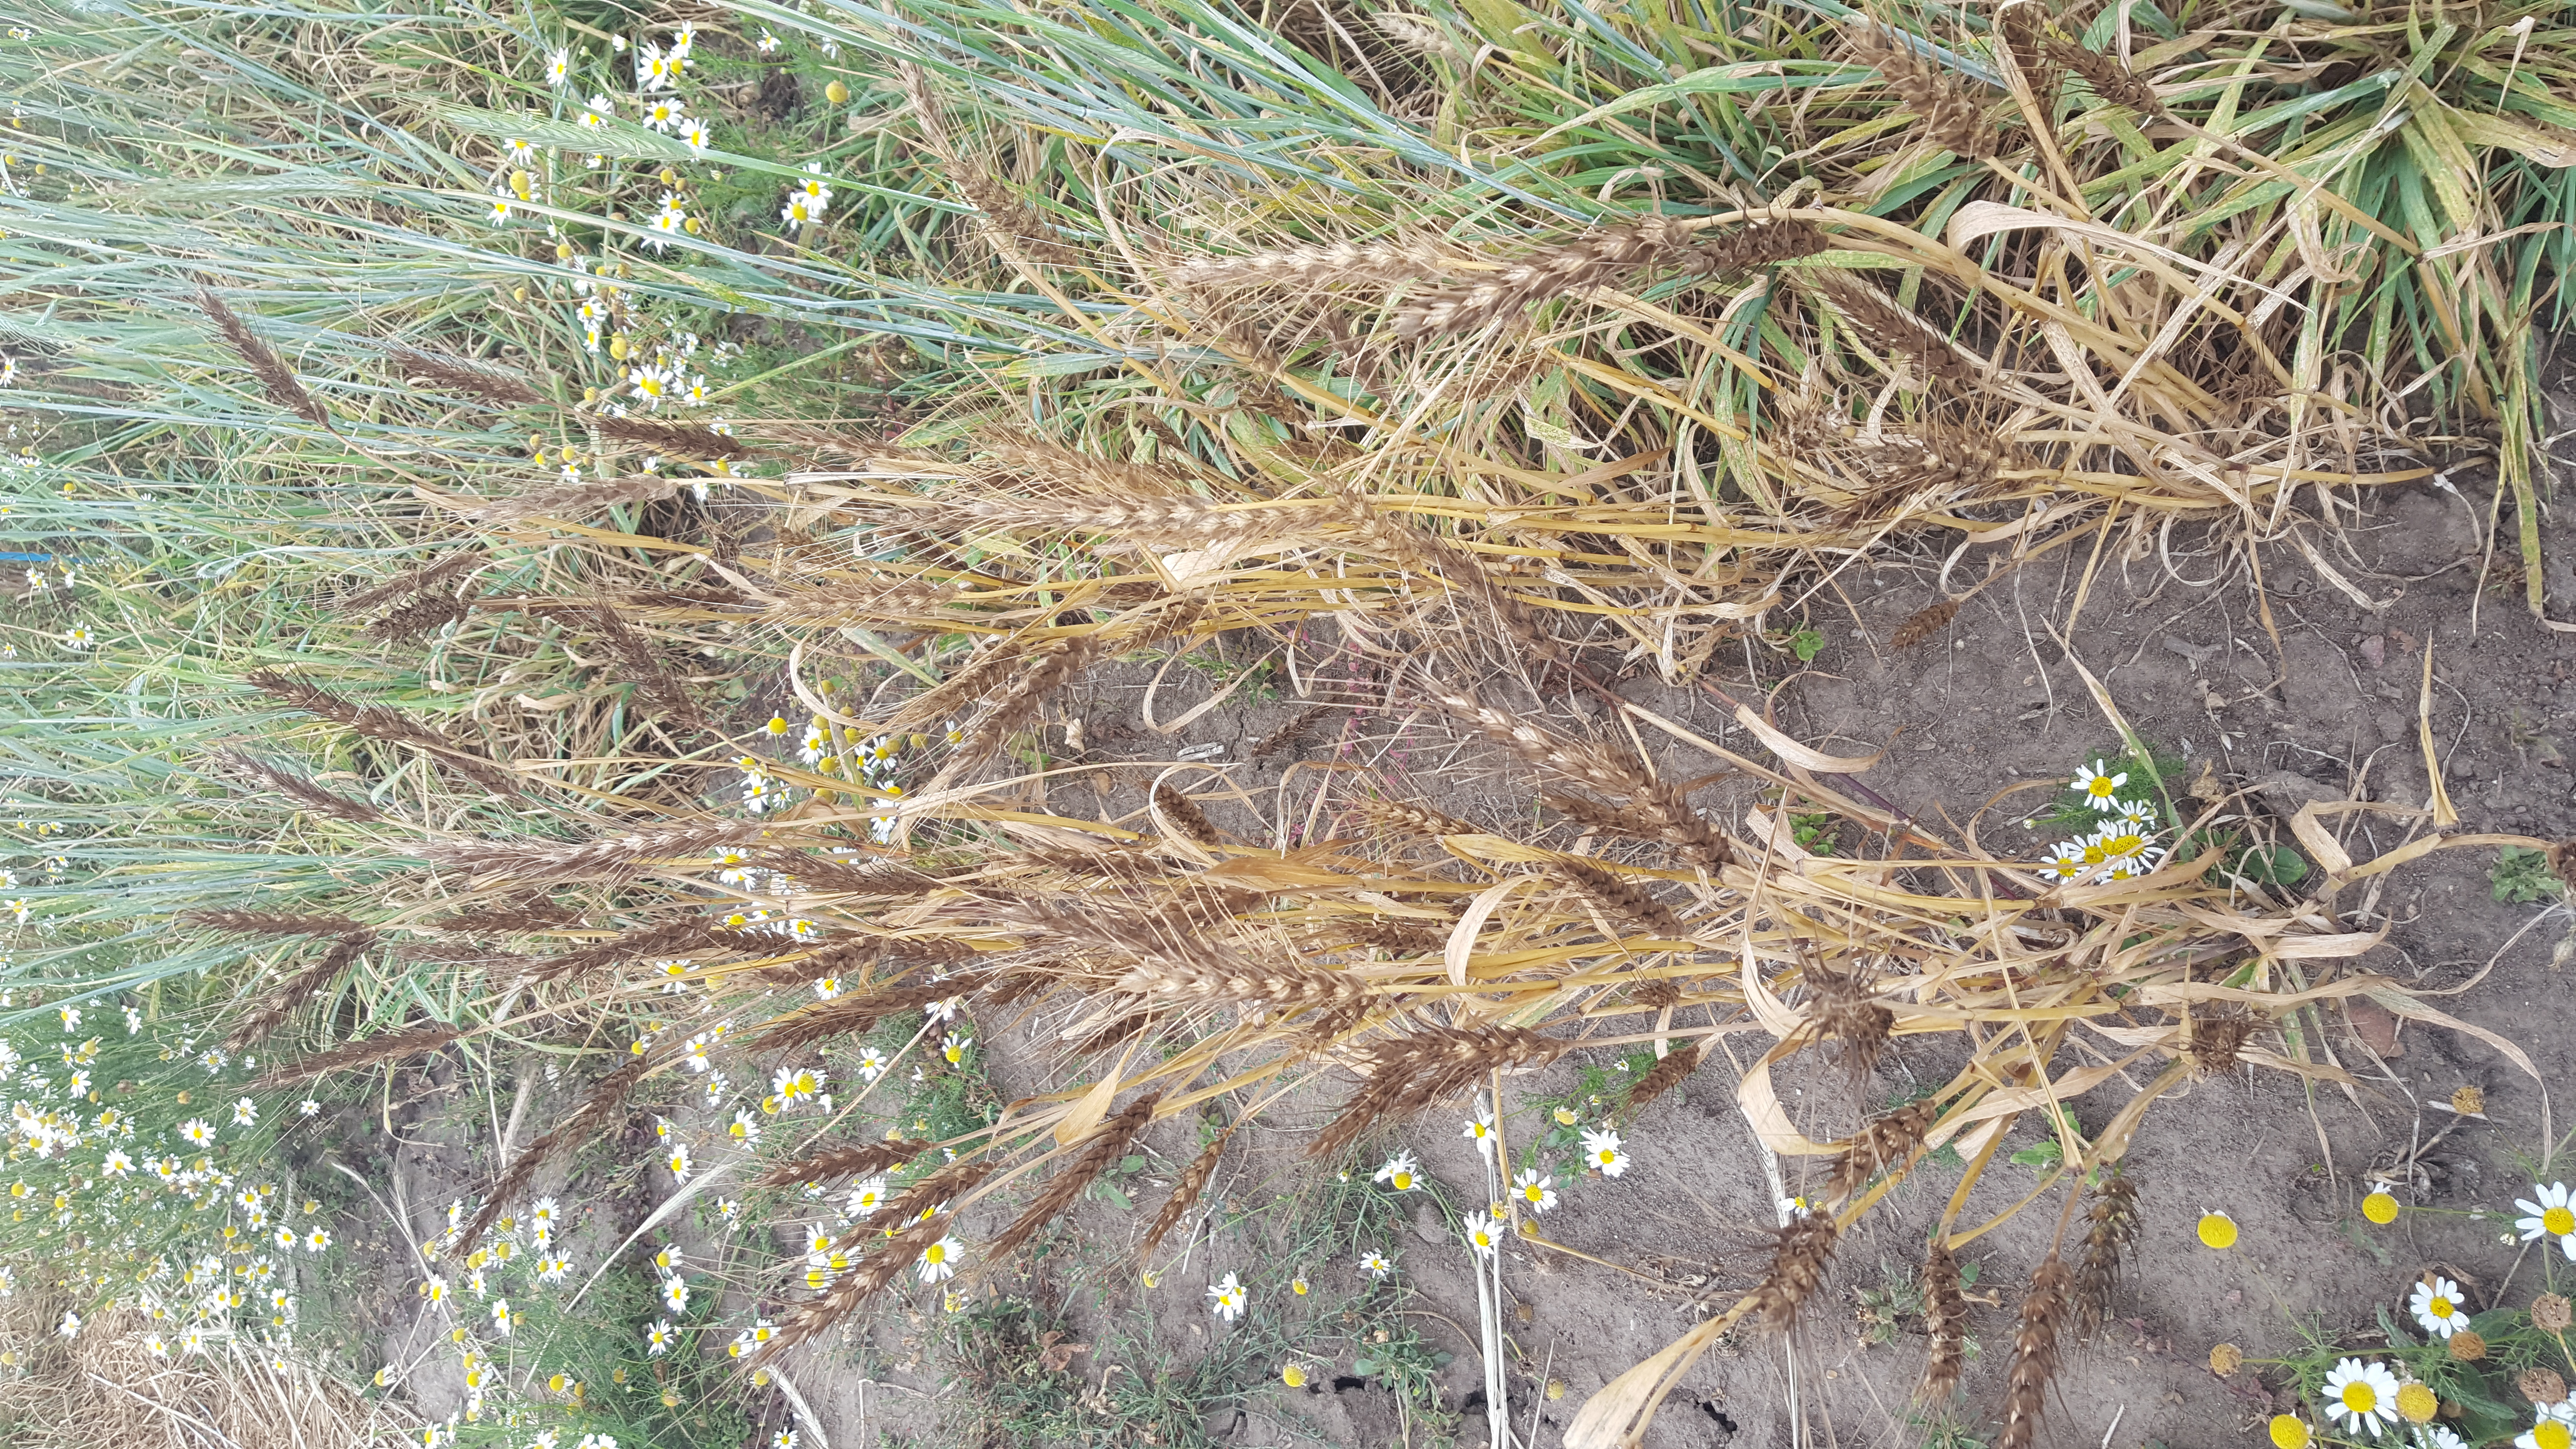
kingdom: Plantae
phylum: Tracheophyta
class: Liliopsida
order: Poales
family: Poaceae
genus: Triticum
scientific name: Triticum aestivum
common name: Common wheat
